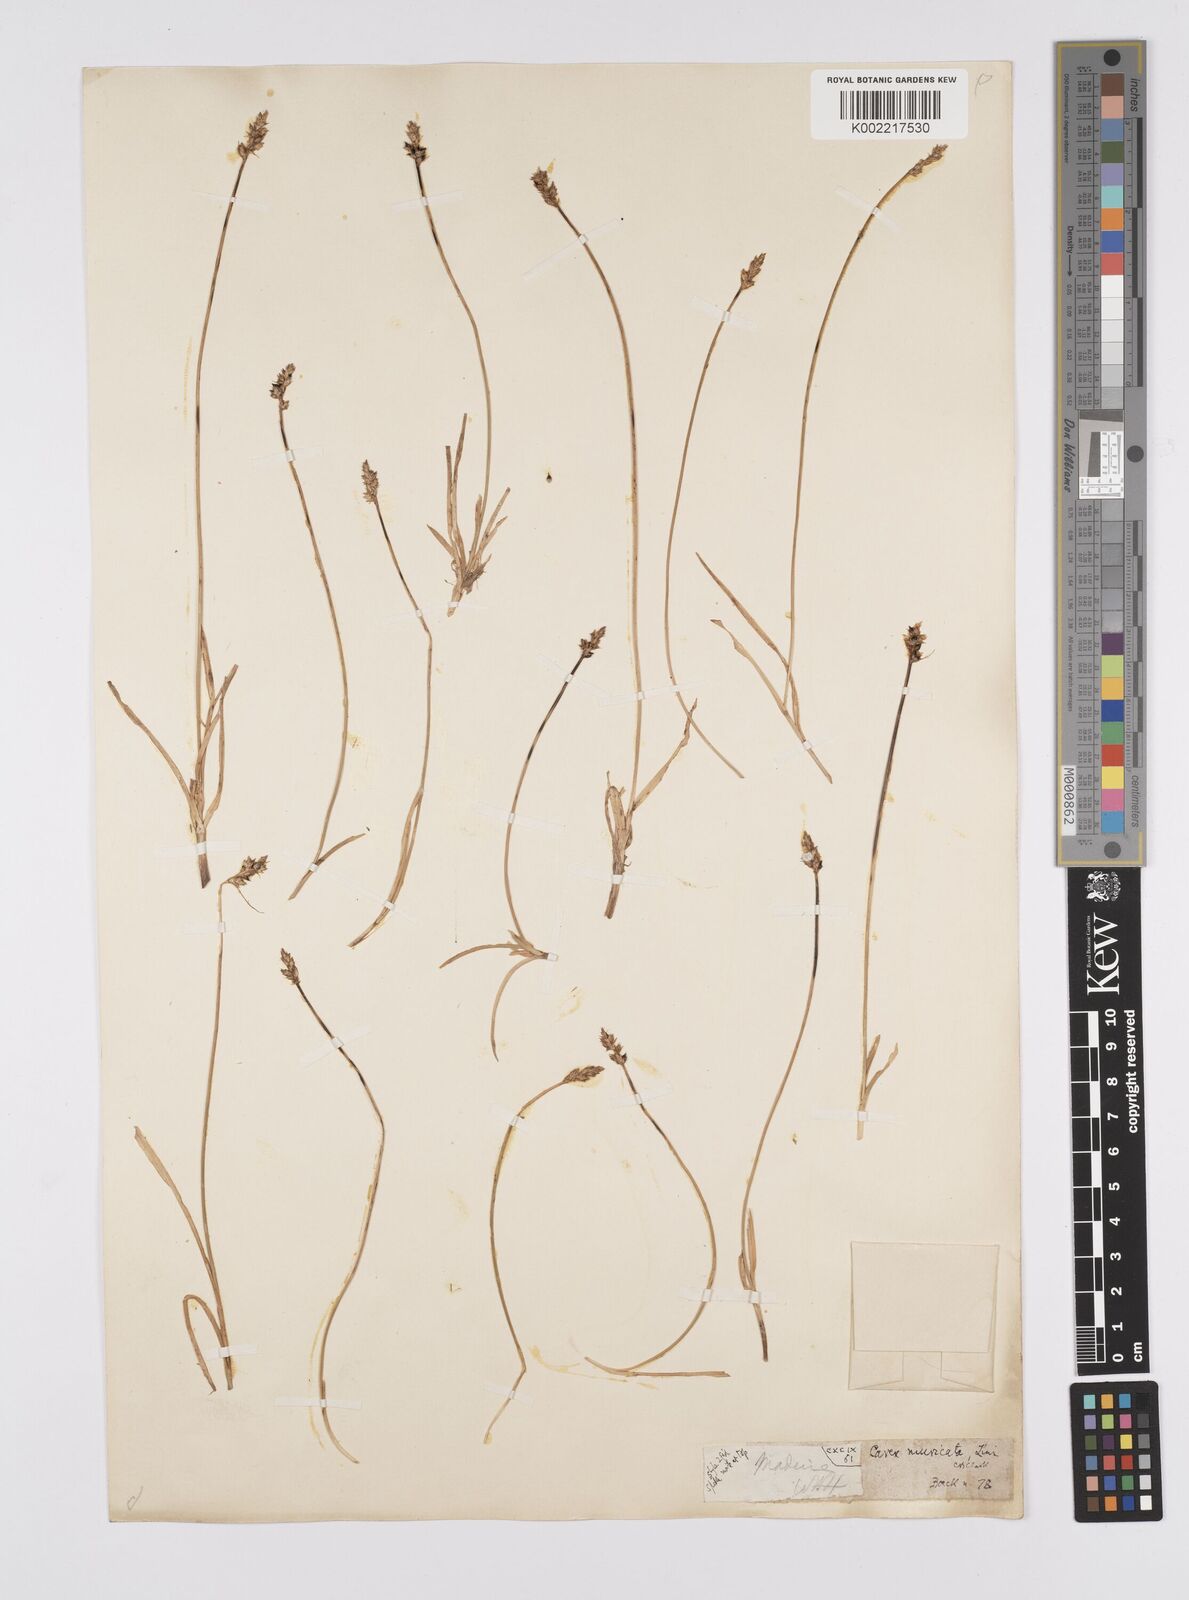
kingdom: Plantae
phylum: Tracheophyta
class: Liliopsida
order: Poales
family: Cyperaceae
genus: Carex
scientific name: Carex muricata
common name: Rough sedge
